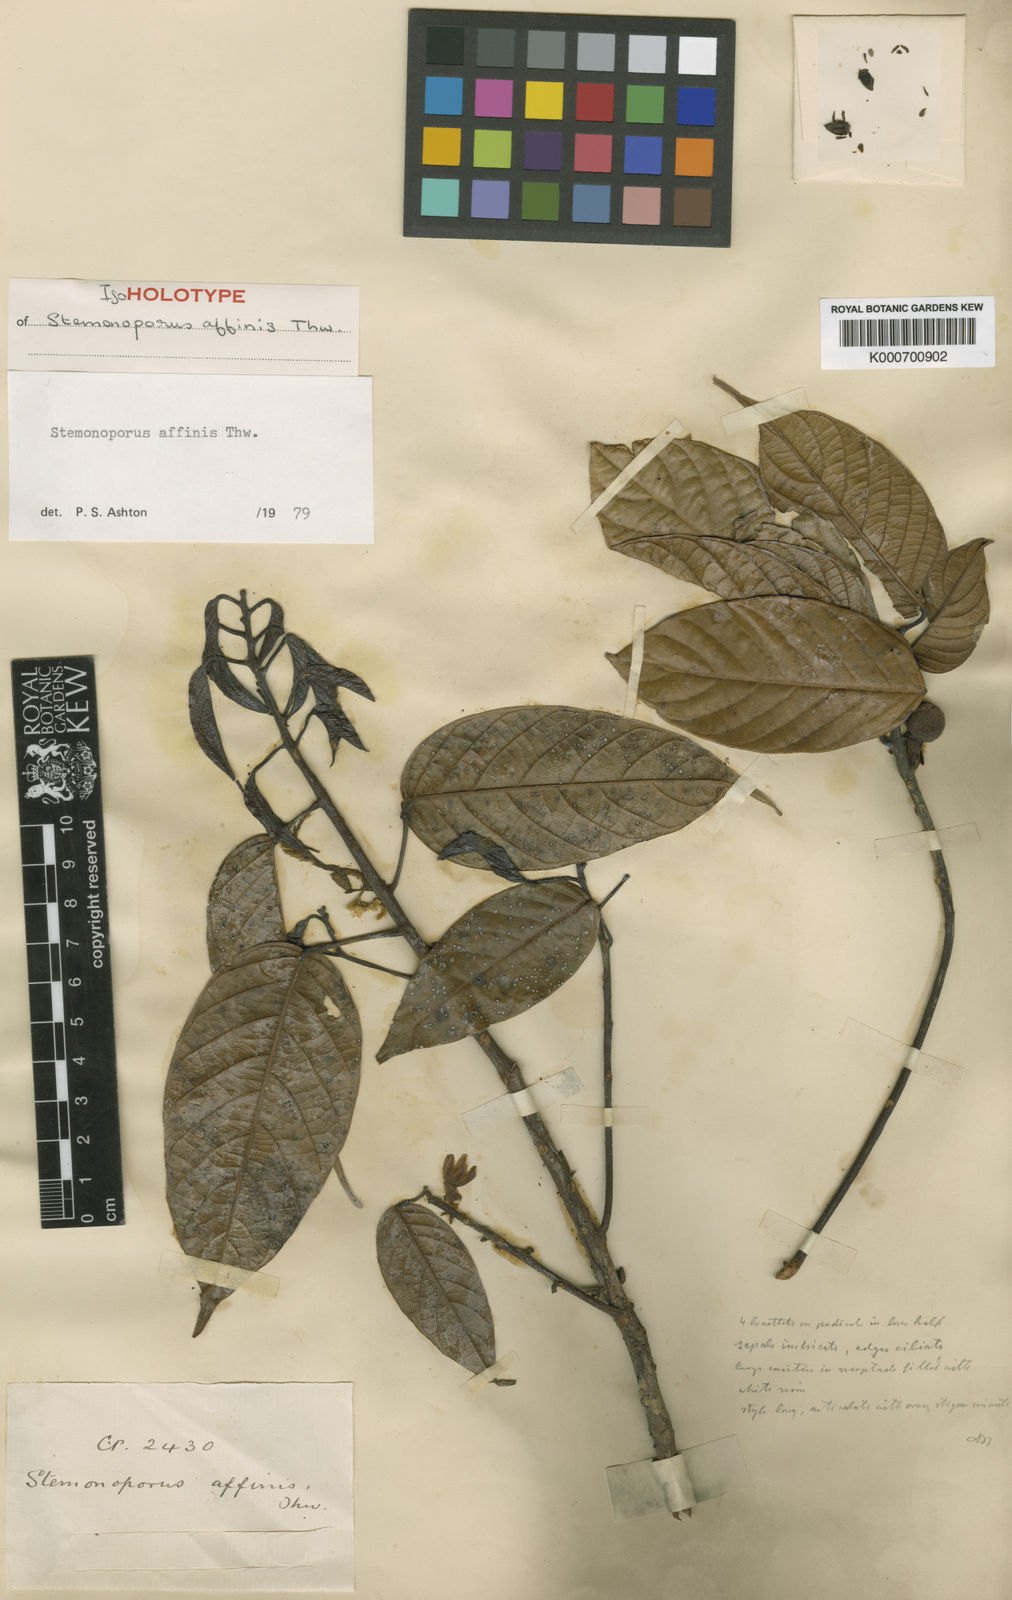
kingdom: Plantae
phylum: Tracheophyta
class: Magnoliopsida
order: Malvales
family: Dipterocarpaceae
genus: Stemonoporus
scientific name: Stemonoporus affinis
